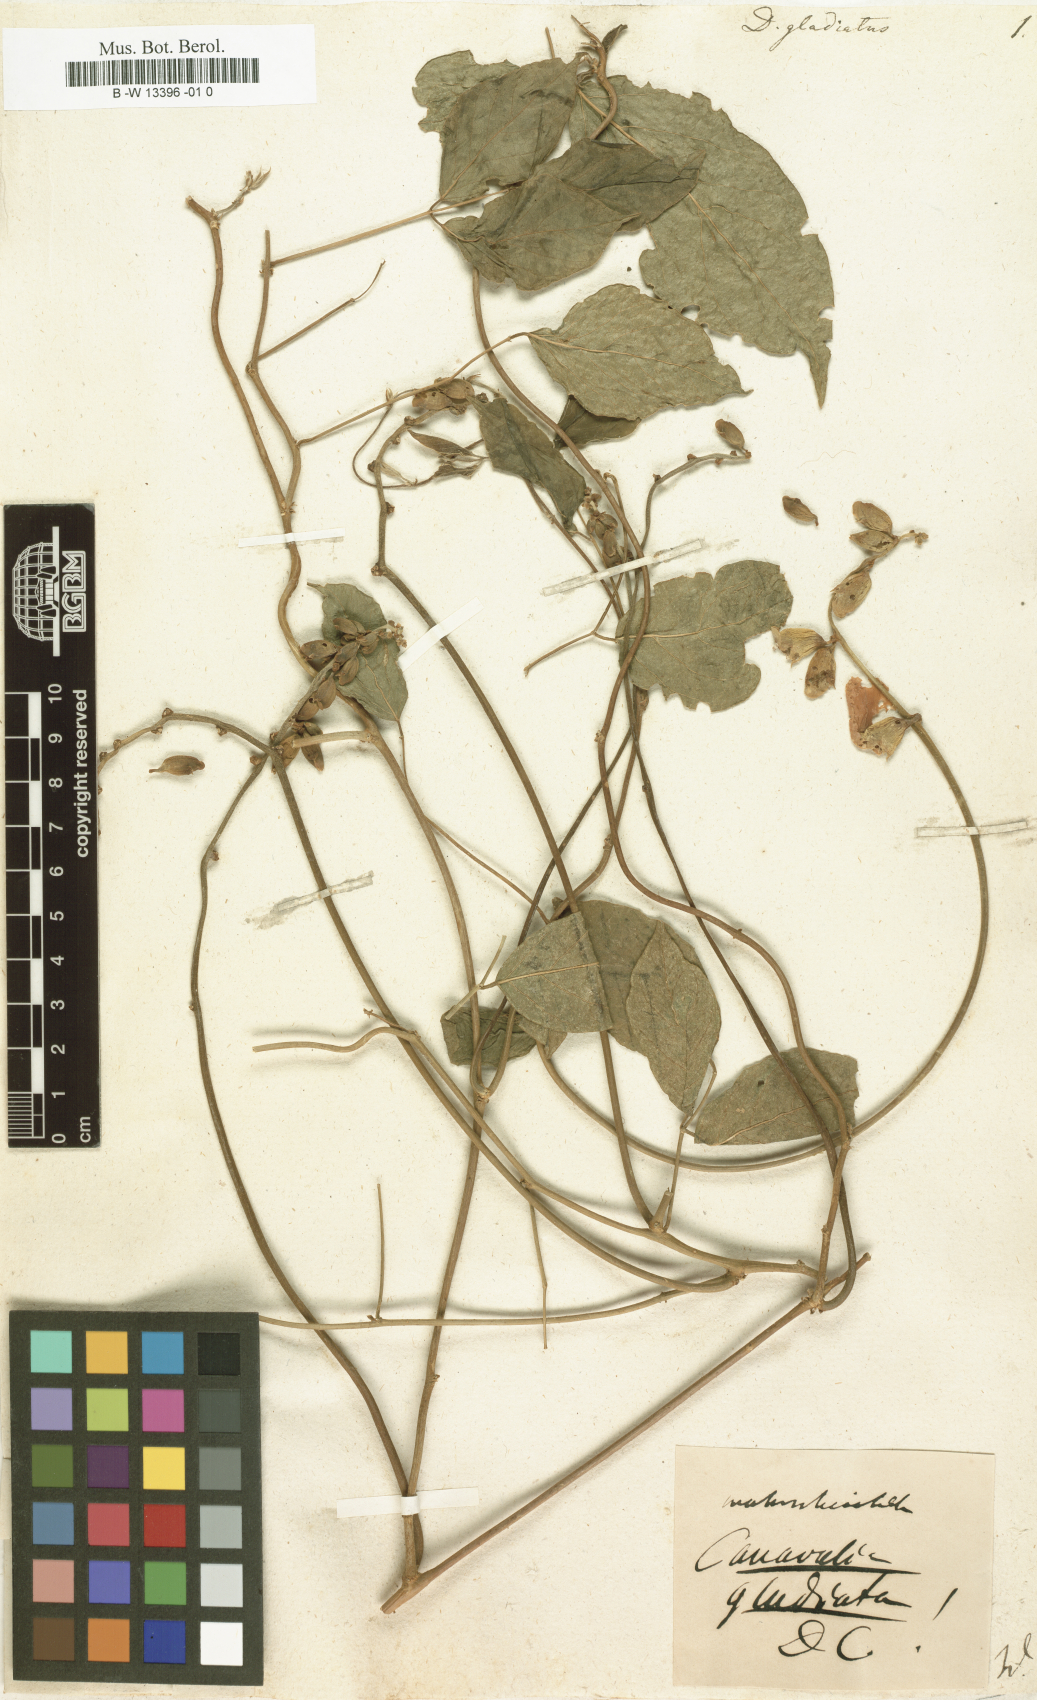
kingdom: Plantae
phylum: Tracheophyta
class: Magnoliopsida
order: Fabales
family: Fabaceae
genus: Canavalia
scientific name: Canavalia gladiata
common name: Scimitar-bean
